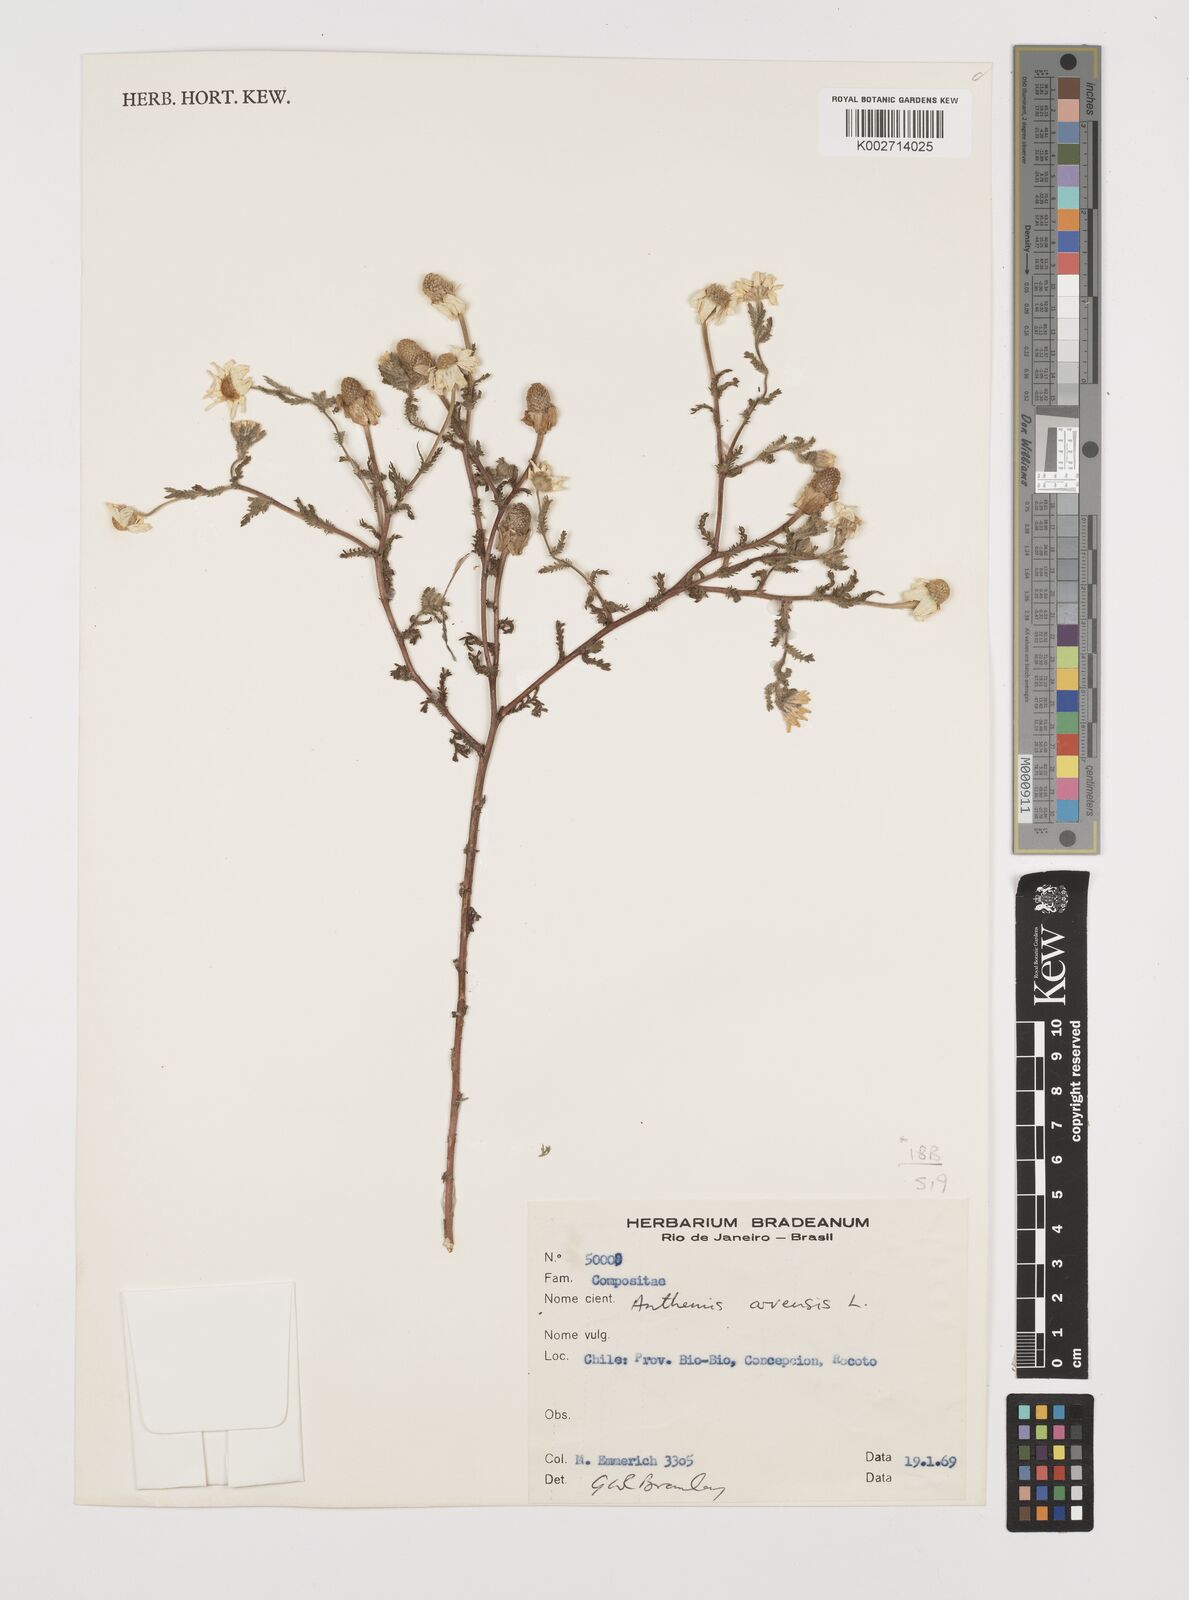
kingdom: Plantae
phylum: Tracheophyta
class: Magnoliopsida
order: Asterales
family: Asteraceae
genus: Anthemis
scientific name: Anthemis arvensis
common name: Corn chamomile
